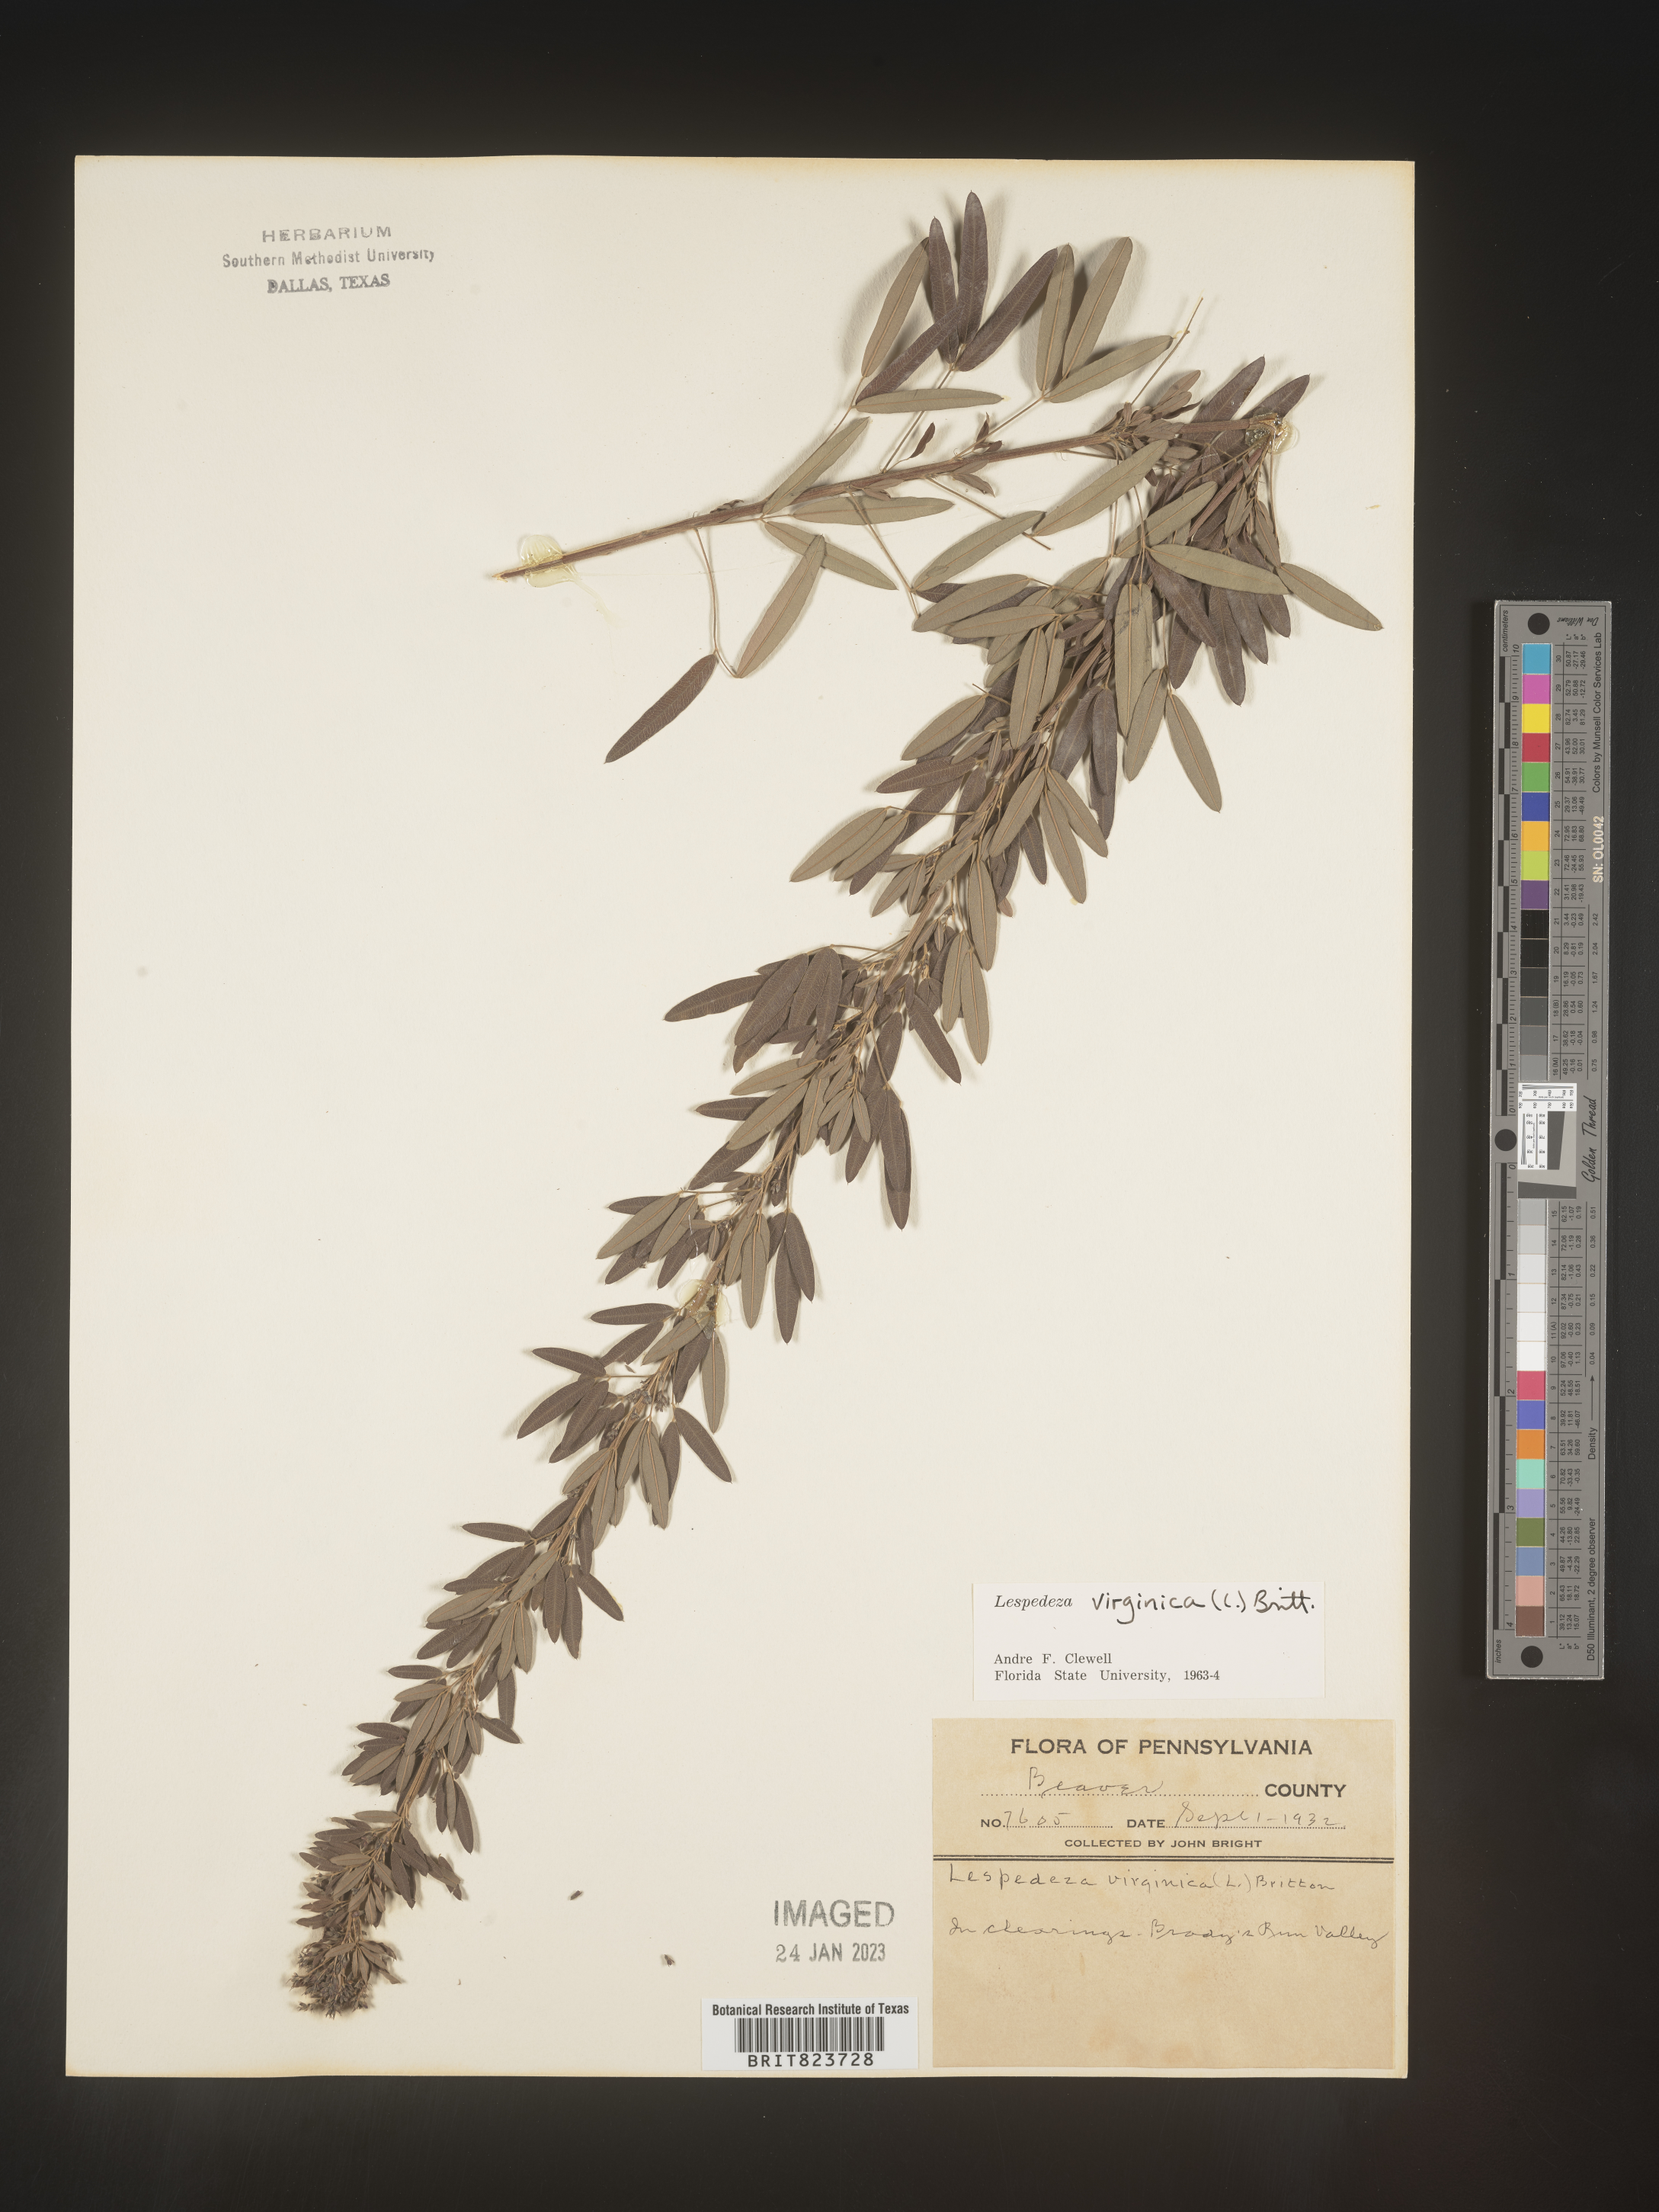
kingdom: Plantae
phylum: Tracheophyta
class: Magnoliopsida
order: Fabales
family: Fabaceae
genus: Lespedeza
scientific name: Lespedeza virginica
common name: Slender bush-clover
